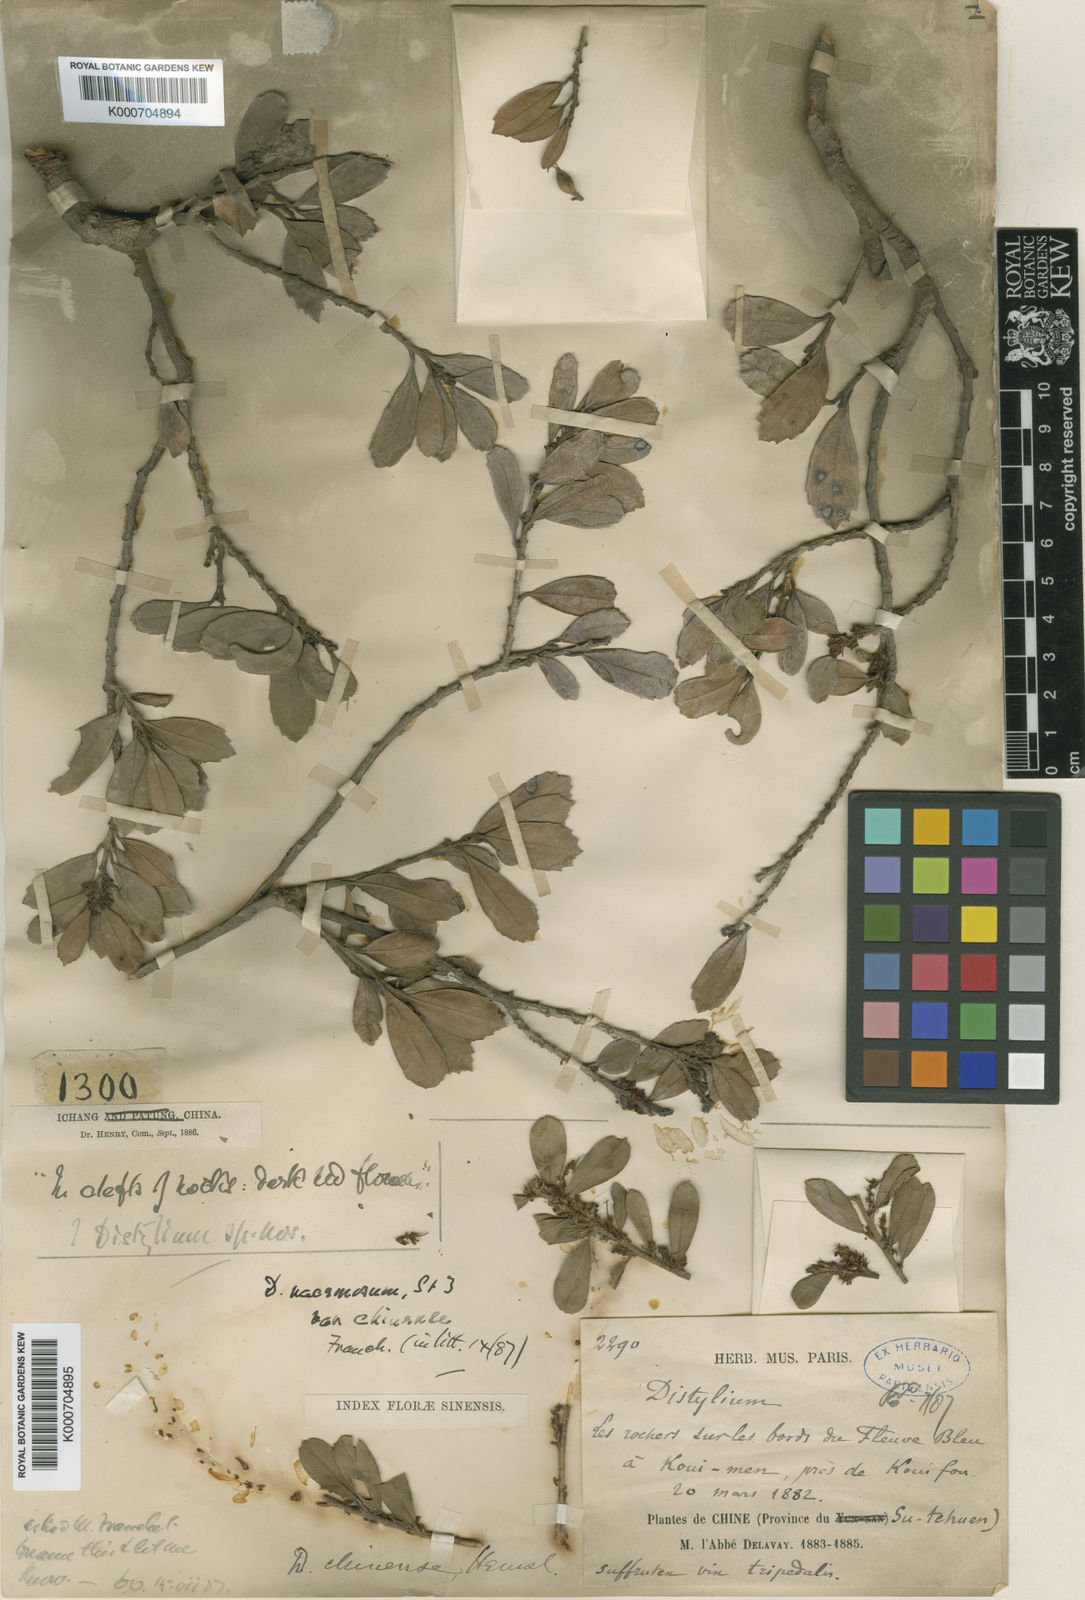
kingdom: Plantae
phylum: Tracheophyta
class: Magnoliopsida
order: Saxifragales
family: Hamamelidaceae
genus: Distylium
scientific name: Distylium chinense
